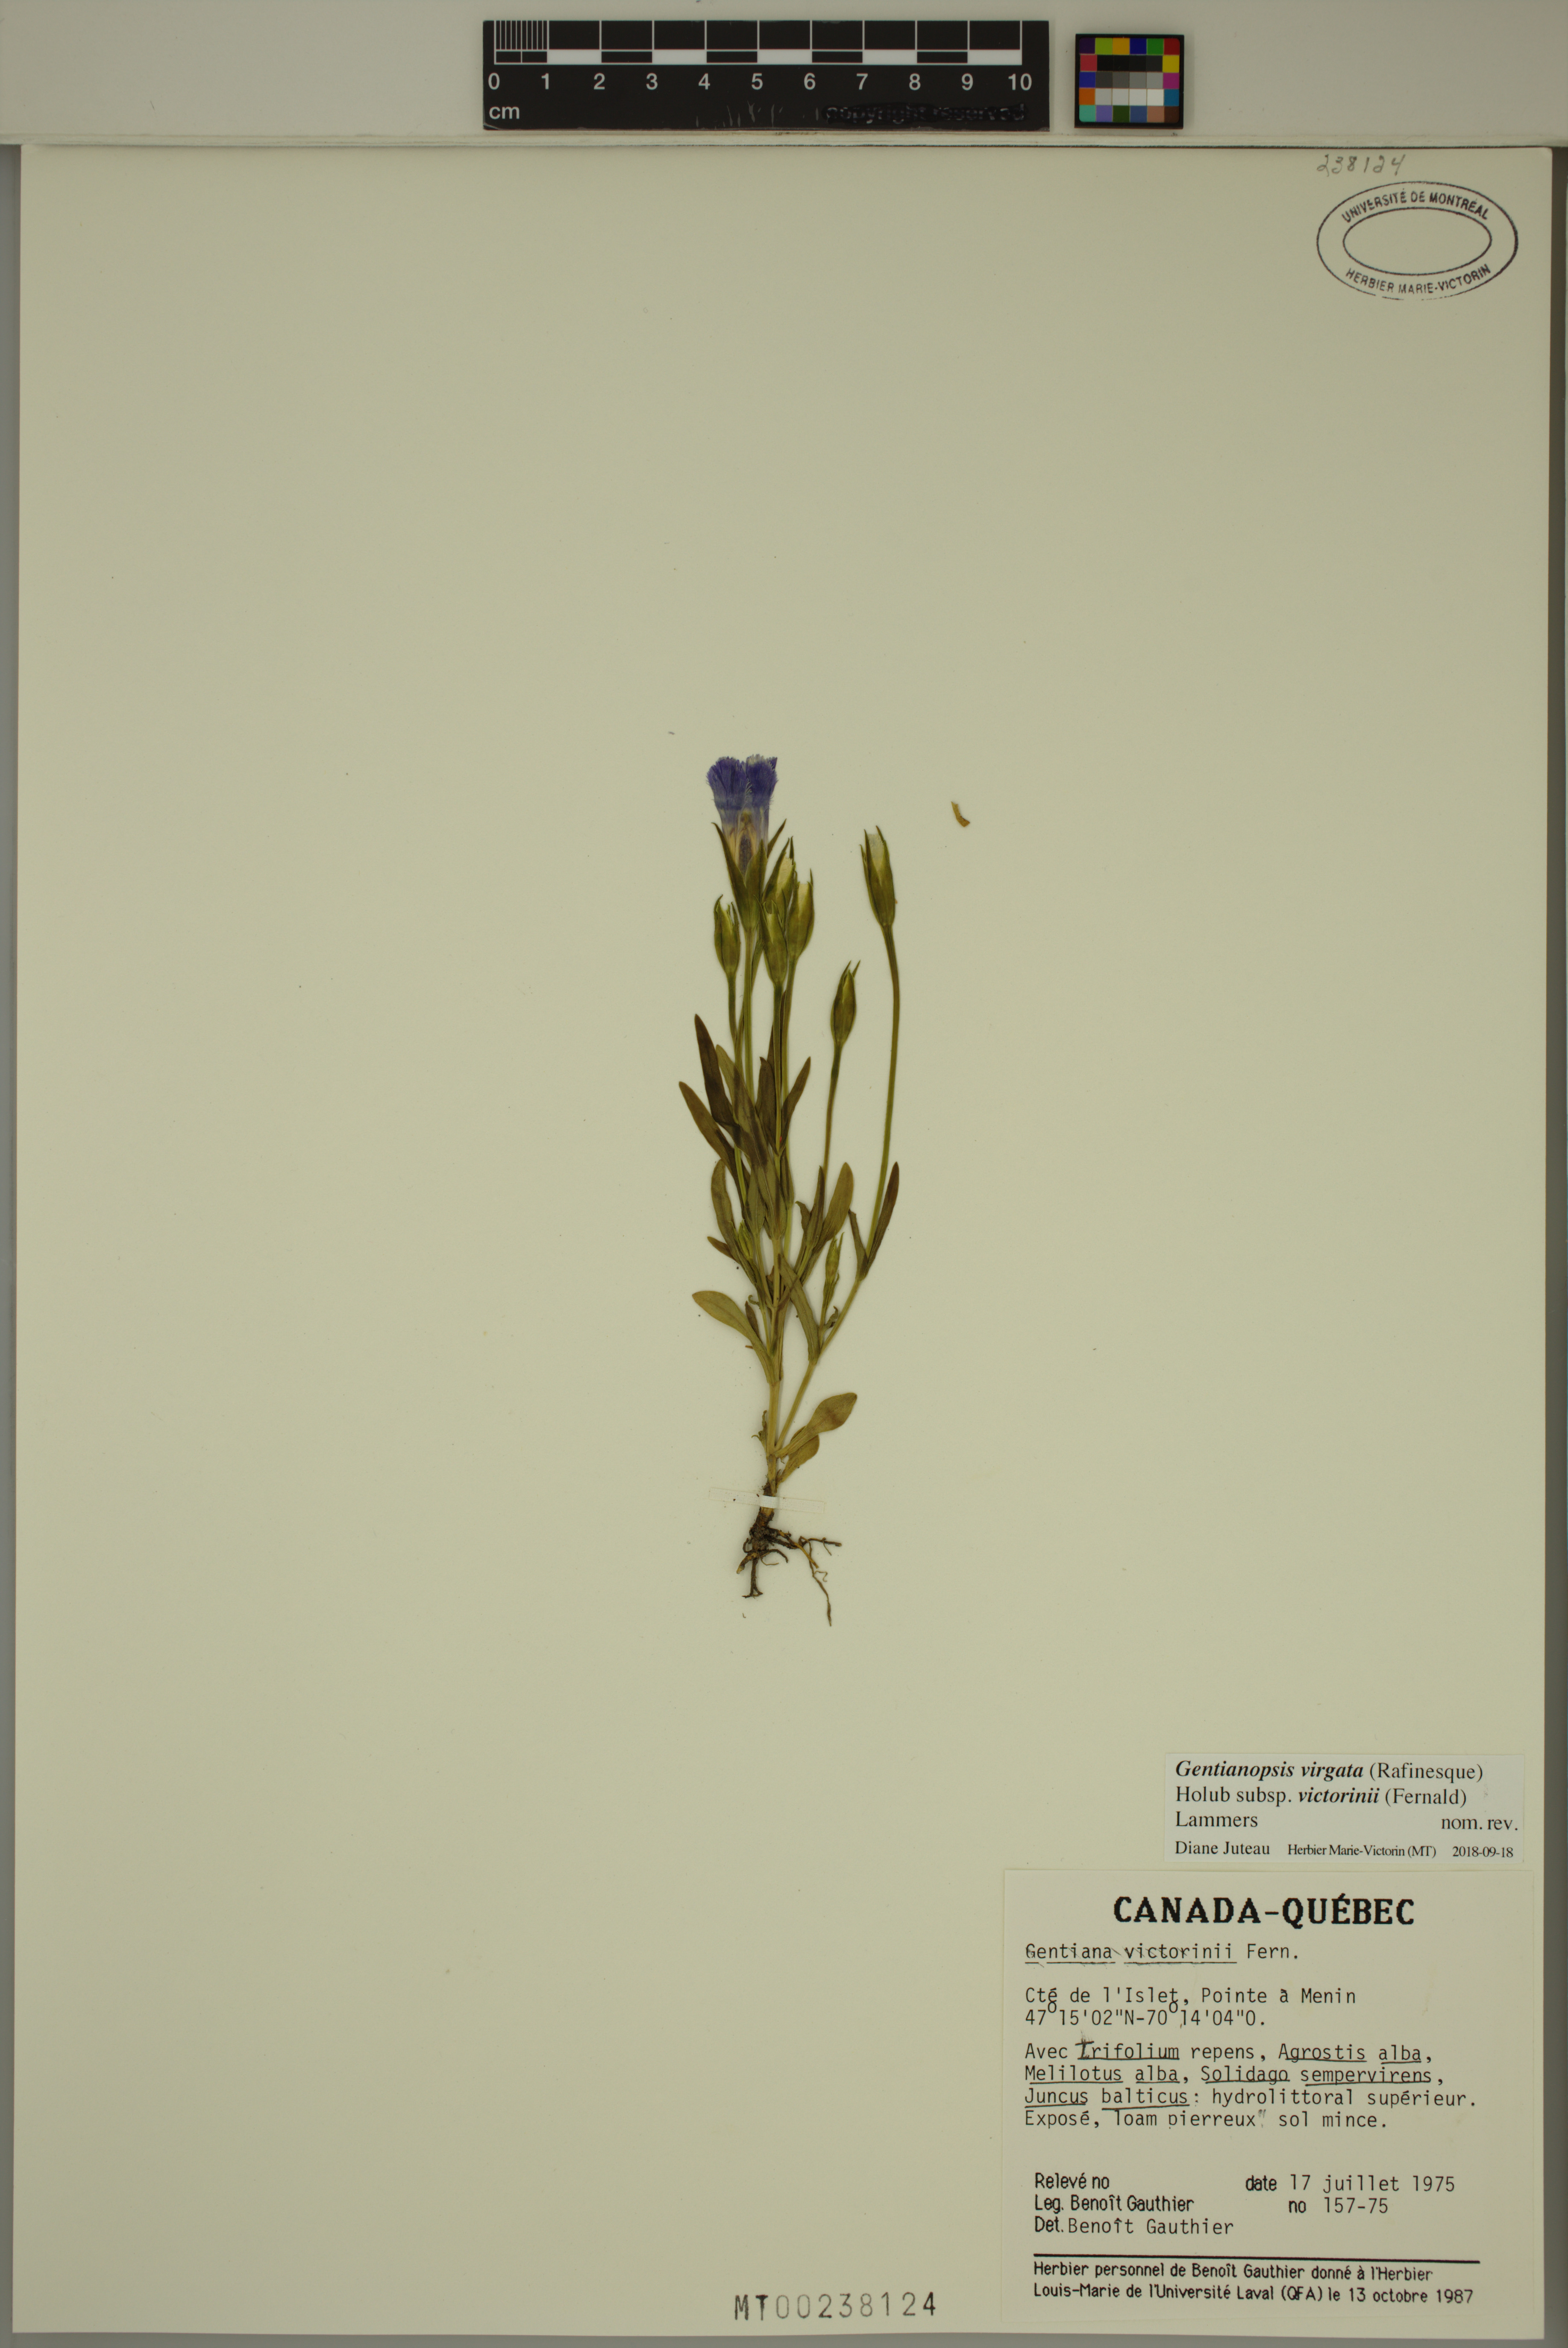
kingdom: Plantae
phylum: Tracheophyta
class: Magnoliopsida
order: Gentianales
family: Gentianaceae
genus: Gentianopsis
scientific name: Gentianopsis victorinii
